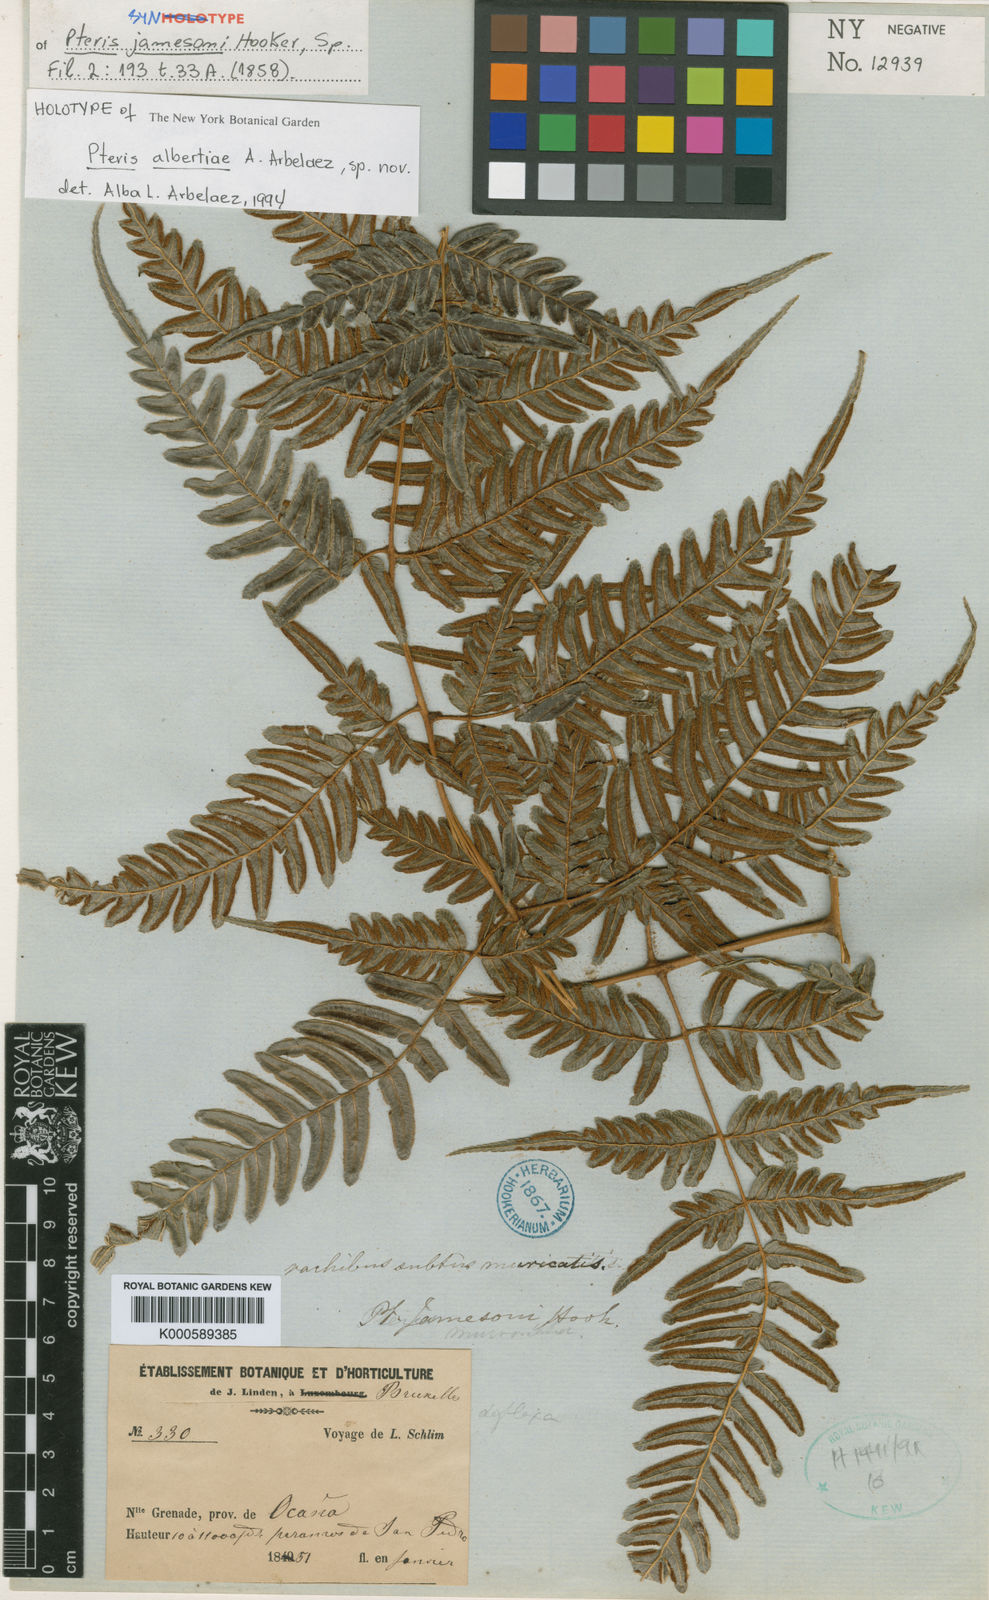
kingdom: Plantae
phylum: Tracheophyta
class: Polypodiopsida
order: Polypodiales
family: Pteridaceae
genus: Pteris
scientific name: Pteris coriacea
